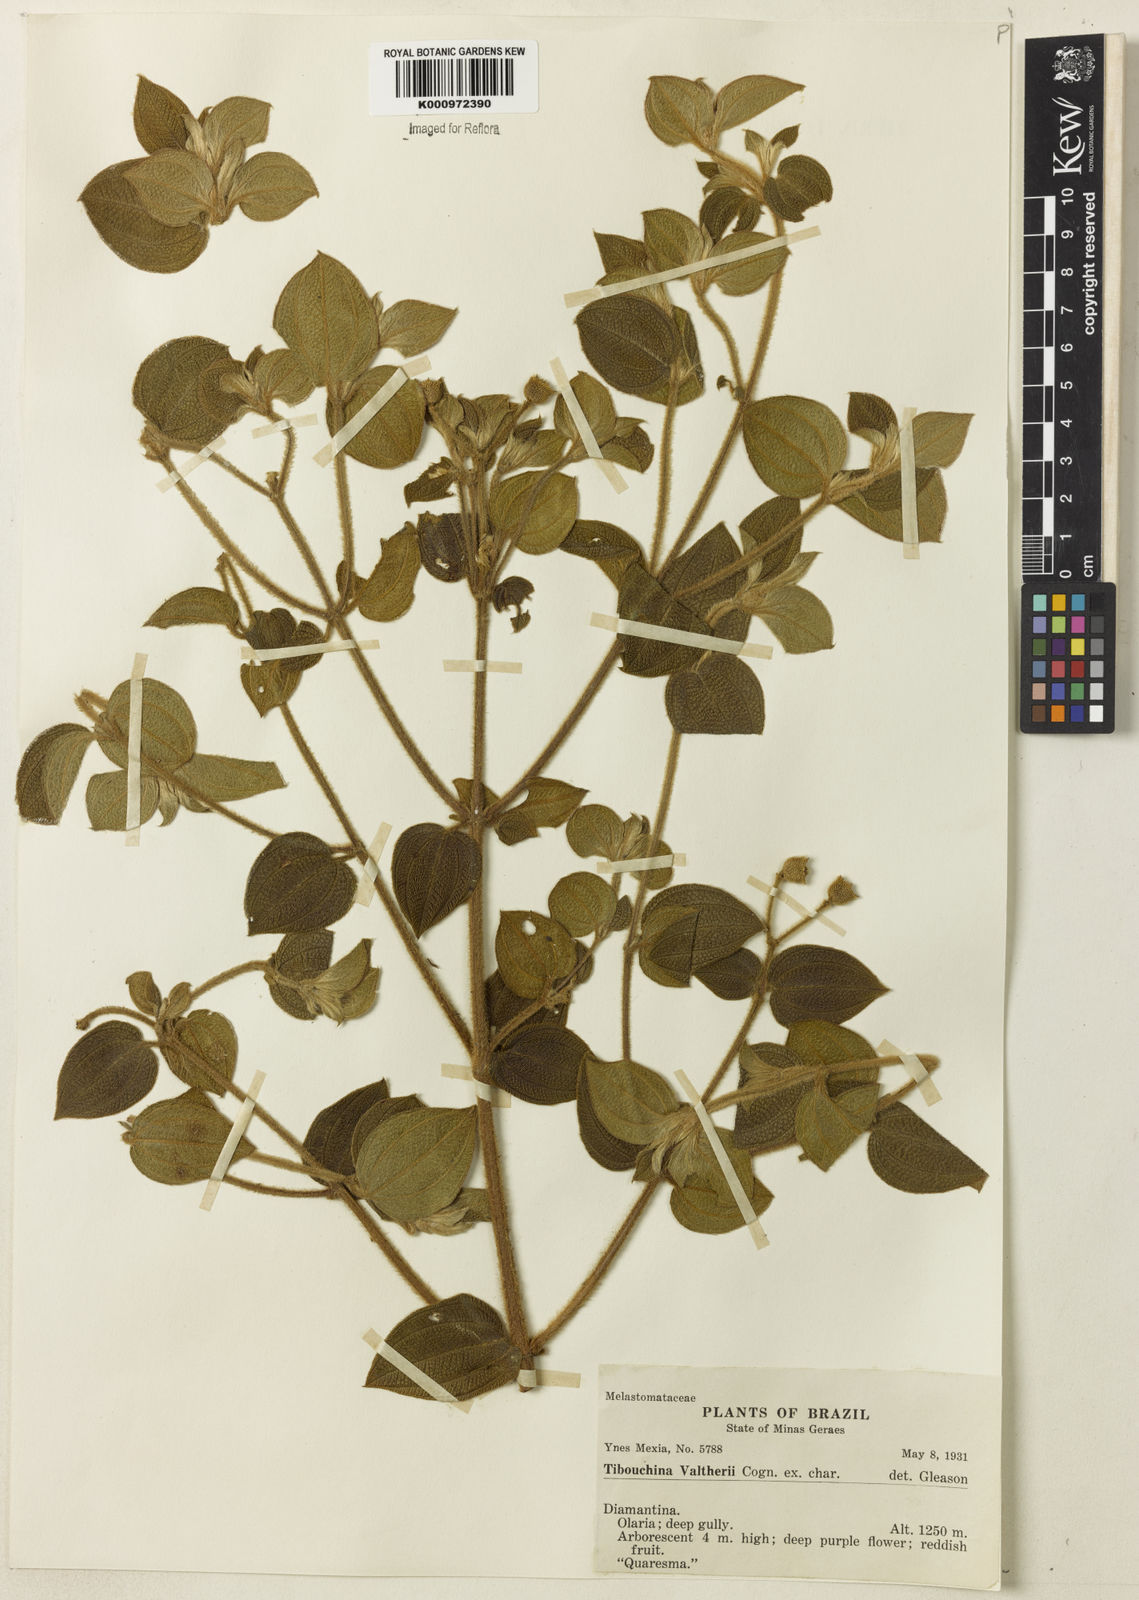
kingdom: Plantae
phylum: Tracheophyta
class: Magnoliopsida
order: Myrtales
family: Melastomataceae
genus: Pleroma
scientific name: Pleroma aemula
